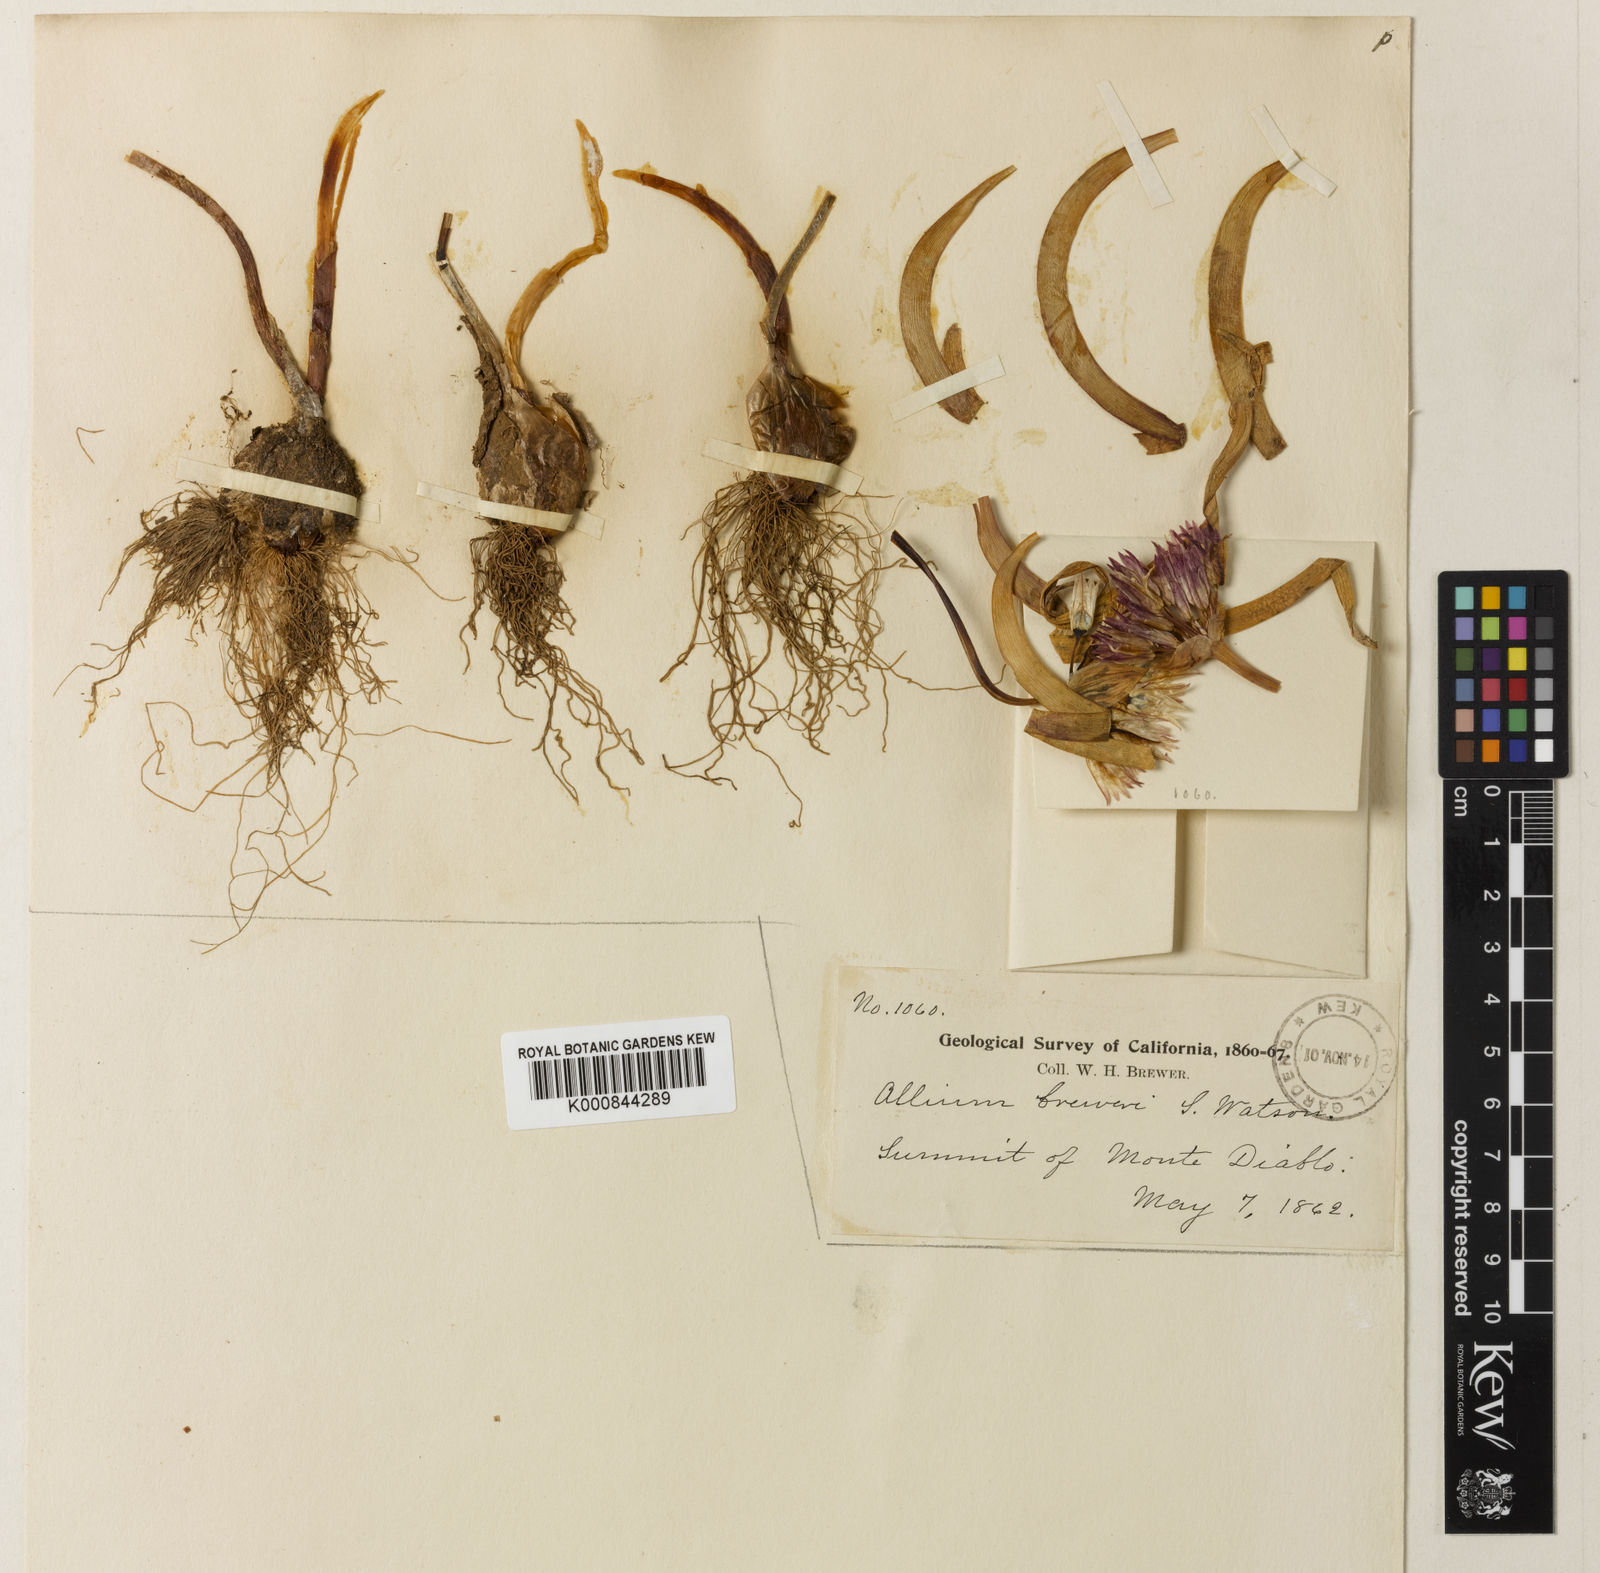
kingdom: Plantae
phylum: Tracheophyta
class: Liliopsida
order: Asparagales
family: Amaryllidaceae
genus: Allium
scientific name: Allium falcifolium
